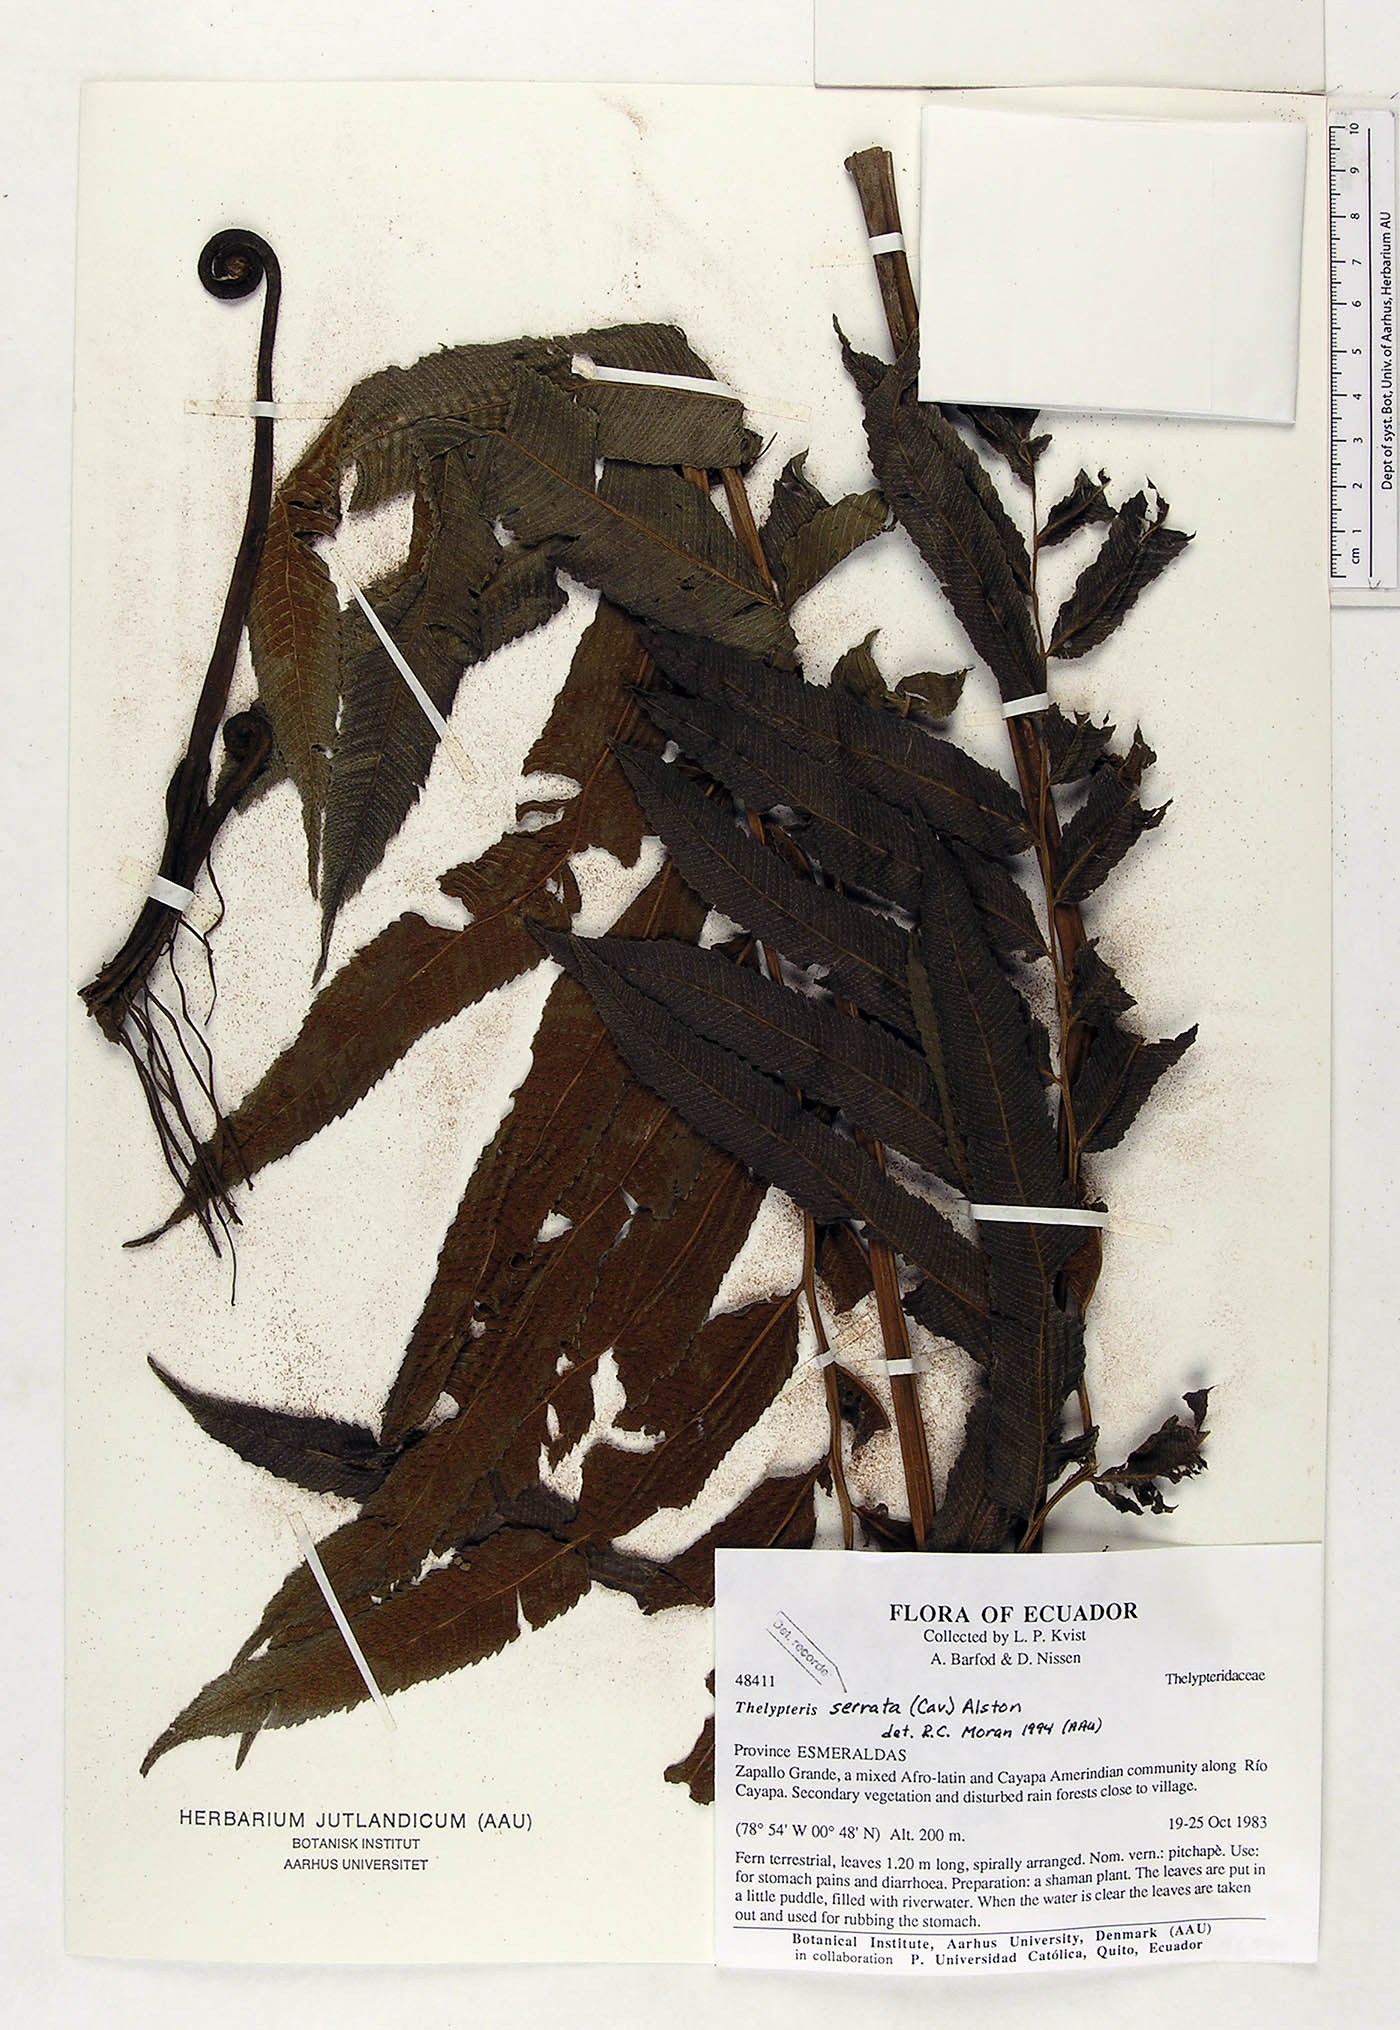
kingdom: Plantae
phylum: Tracheophyta
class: Polypodiopsida
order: Polypodiales
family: Thelypteridaceae
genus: Meniscium
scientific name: Meniscium serratum
